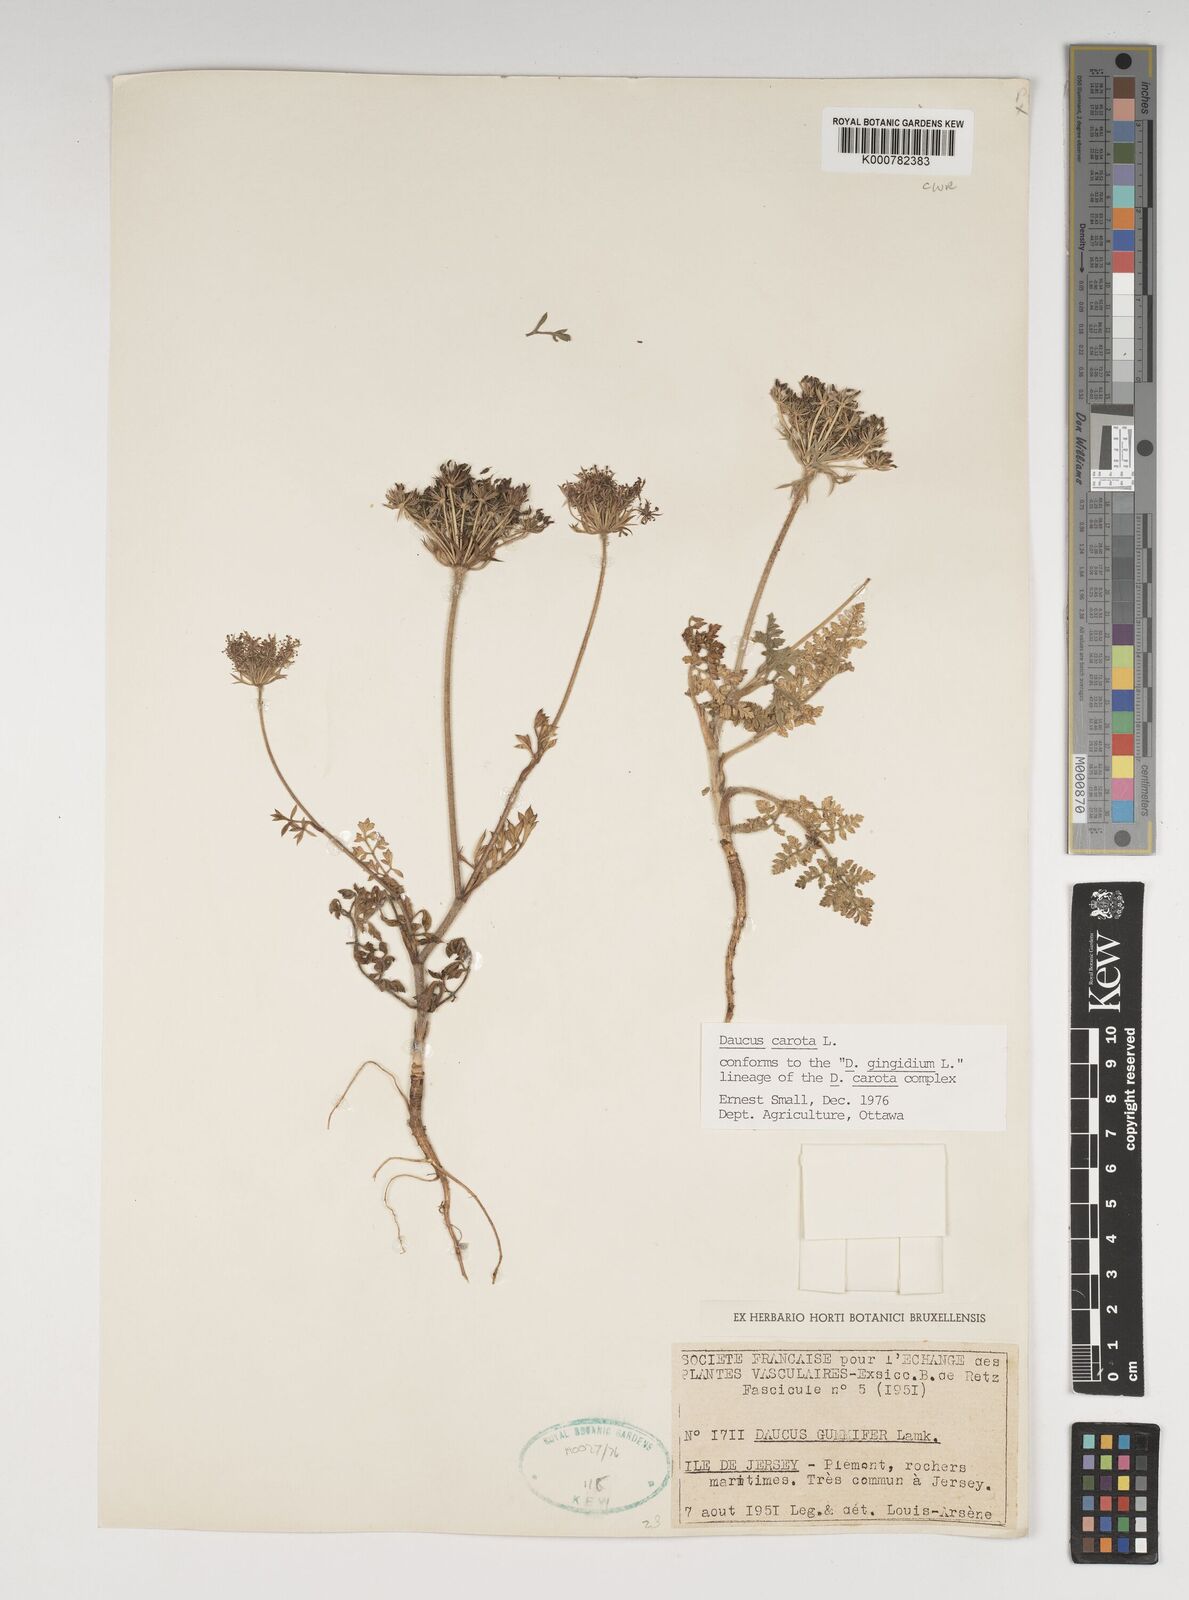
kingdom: Plantae
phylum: Tracheophyta
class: Magnoliopsida
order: Apiales
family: Apiaceae
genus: Daucus
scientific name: Daucus carota
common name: Wild carrot
